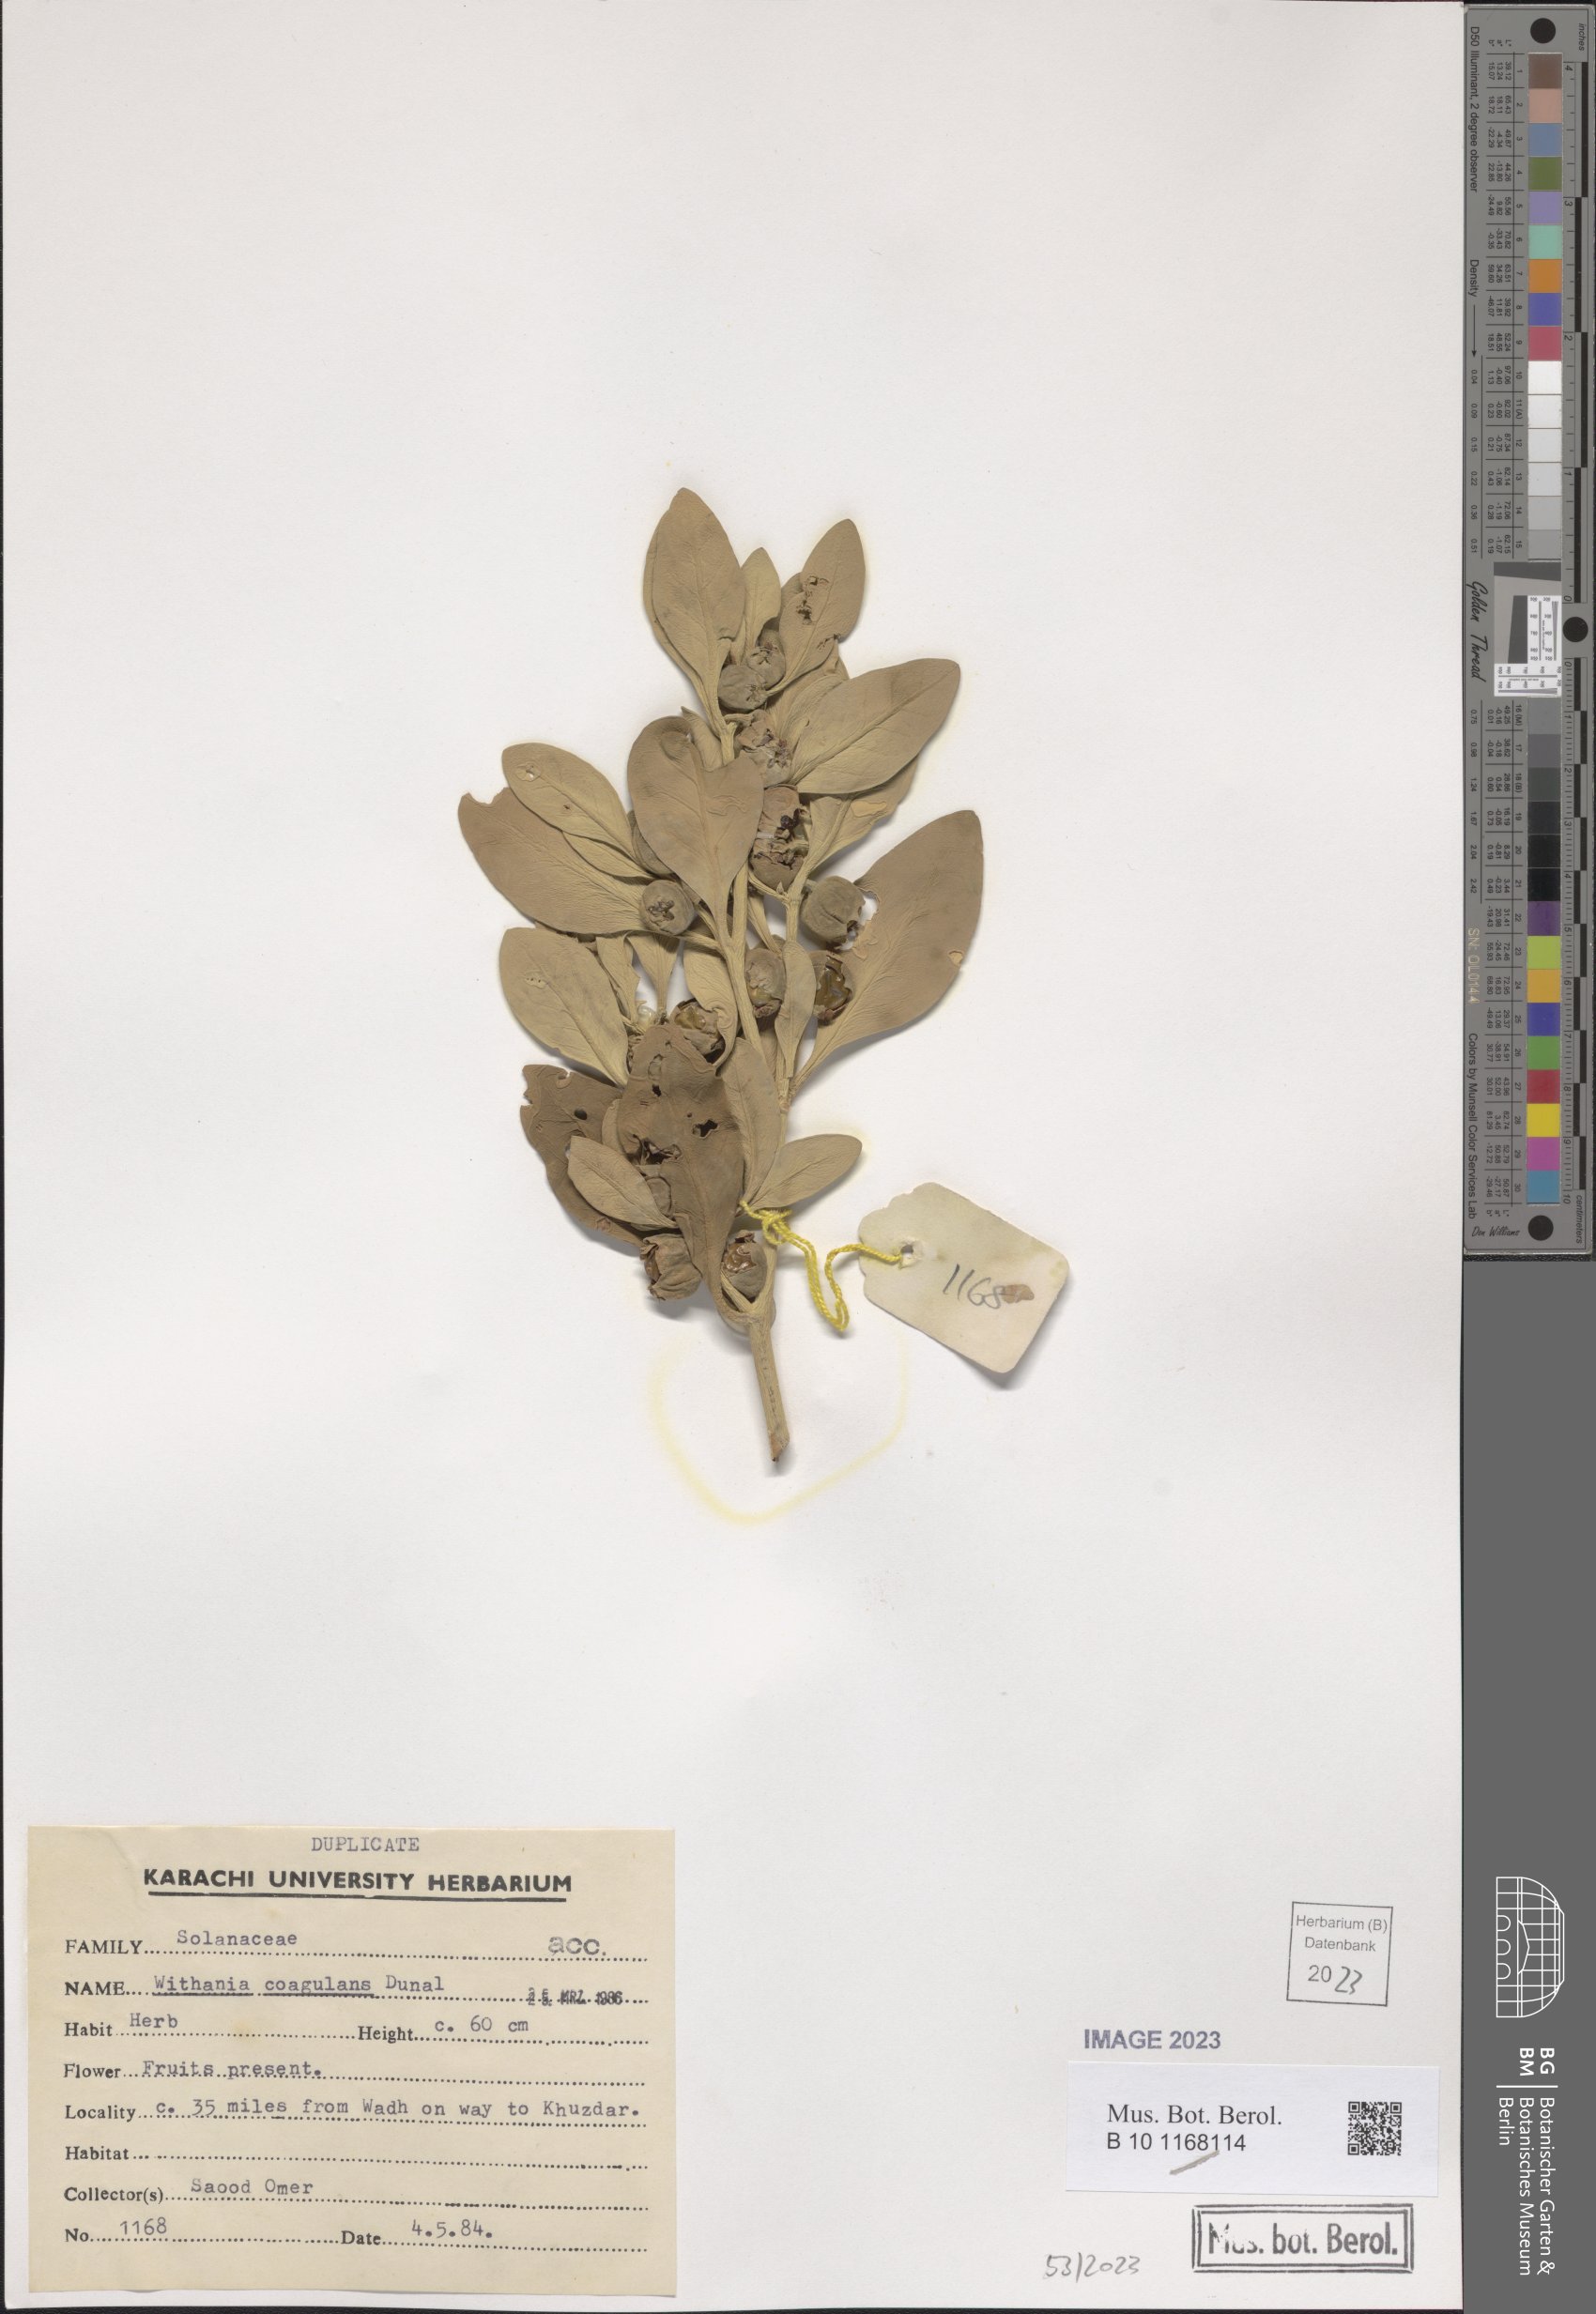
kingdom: Plantae
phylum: Tracheophyta
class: Magnoliopsida
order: Solanales
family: Solanaceae
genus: Withania
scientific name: Withania coagulans
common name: Vegetable rennet
